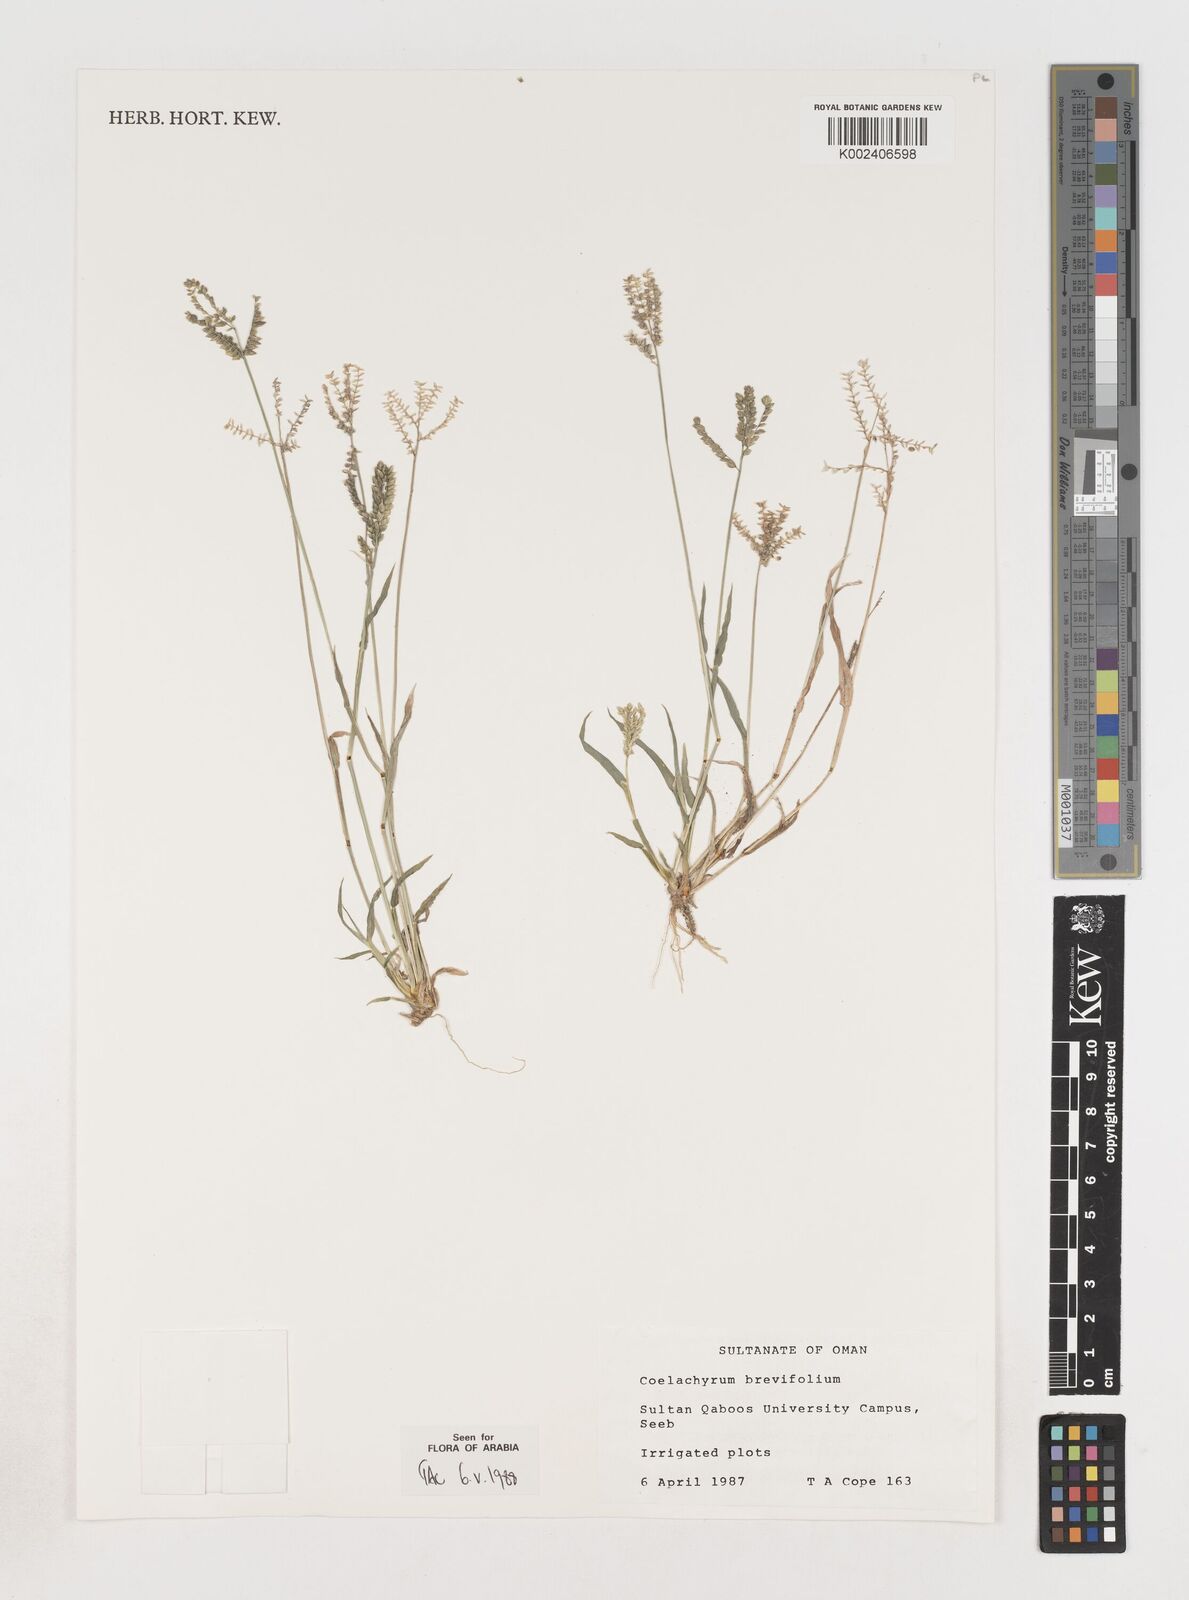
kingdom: Plantae
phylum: Tracheophyta
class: Liliopsida
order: Poales
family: Poaceae
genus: Coelachyrum
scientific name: Coelachyrum brevifolium
